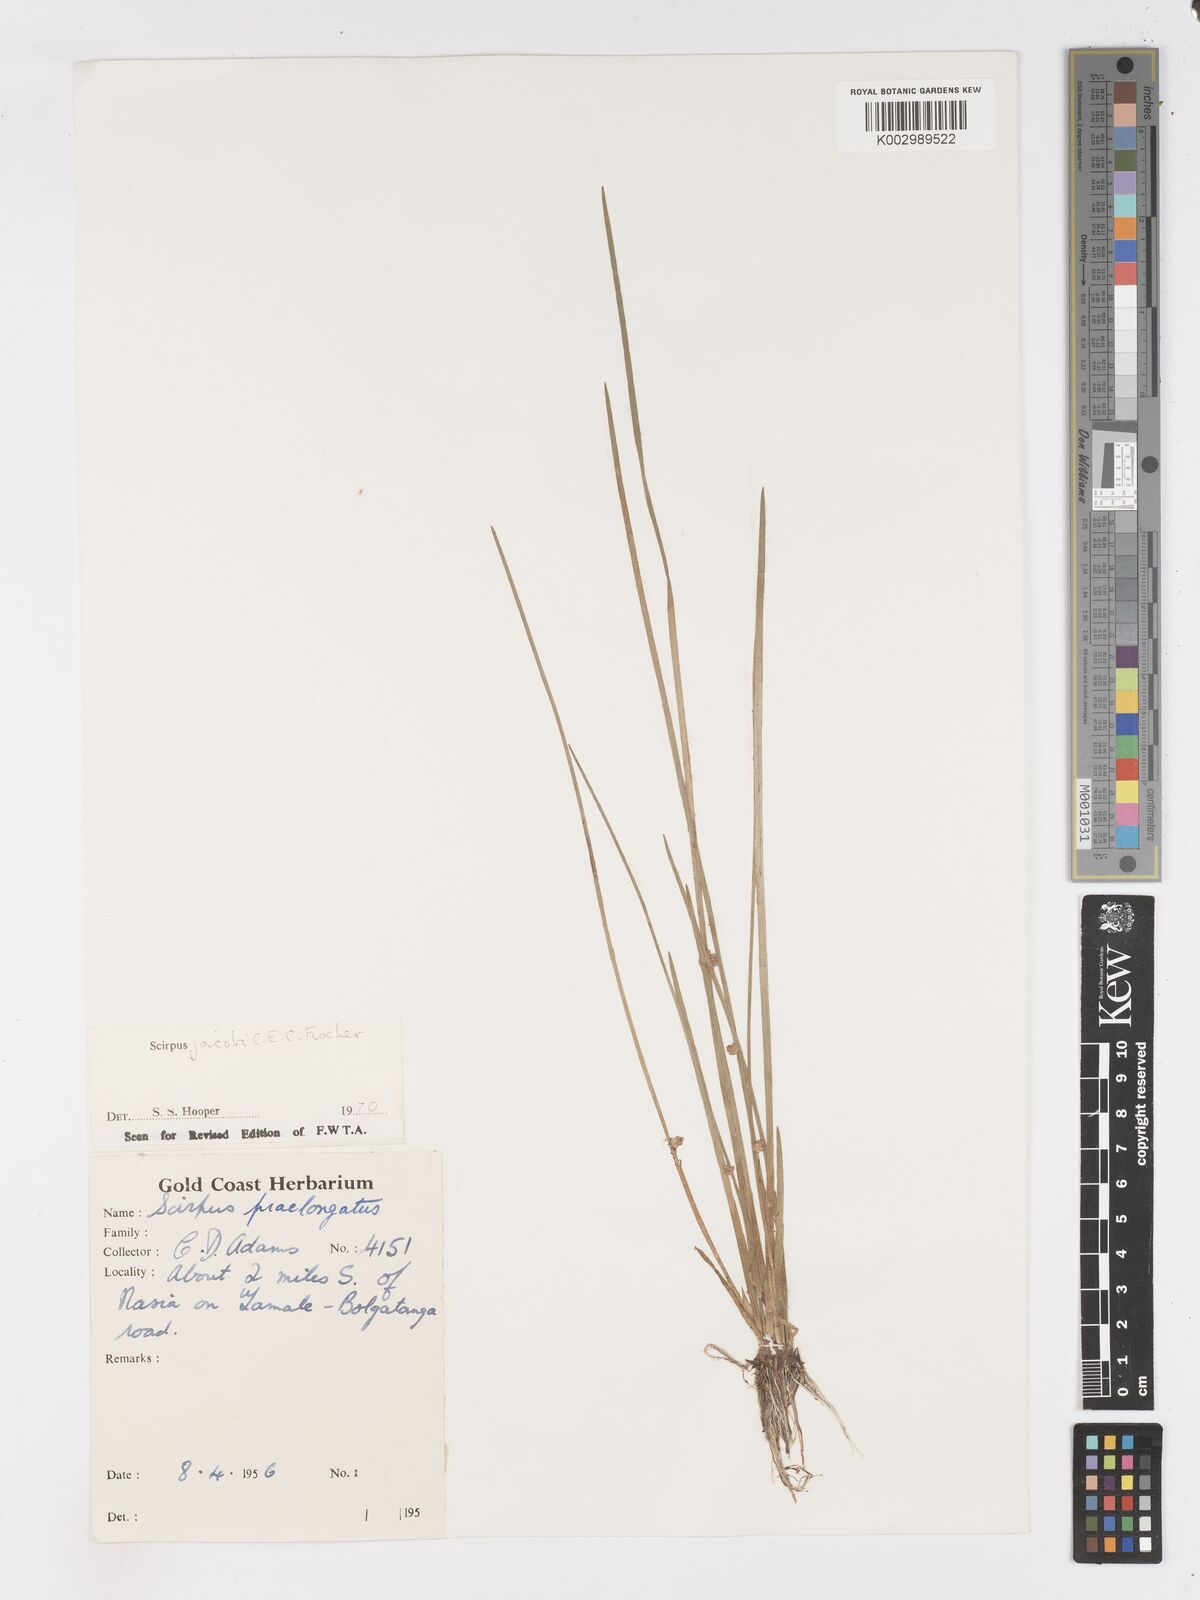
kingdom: Plantae
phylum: Tracheophyta
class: Liliopsida
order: Poales
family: Cyperaceae
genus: Schoenoplectiella
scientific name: Schoenoplectiella senegalensis
